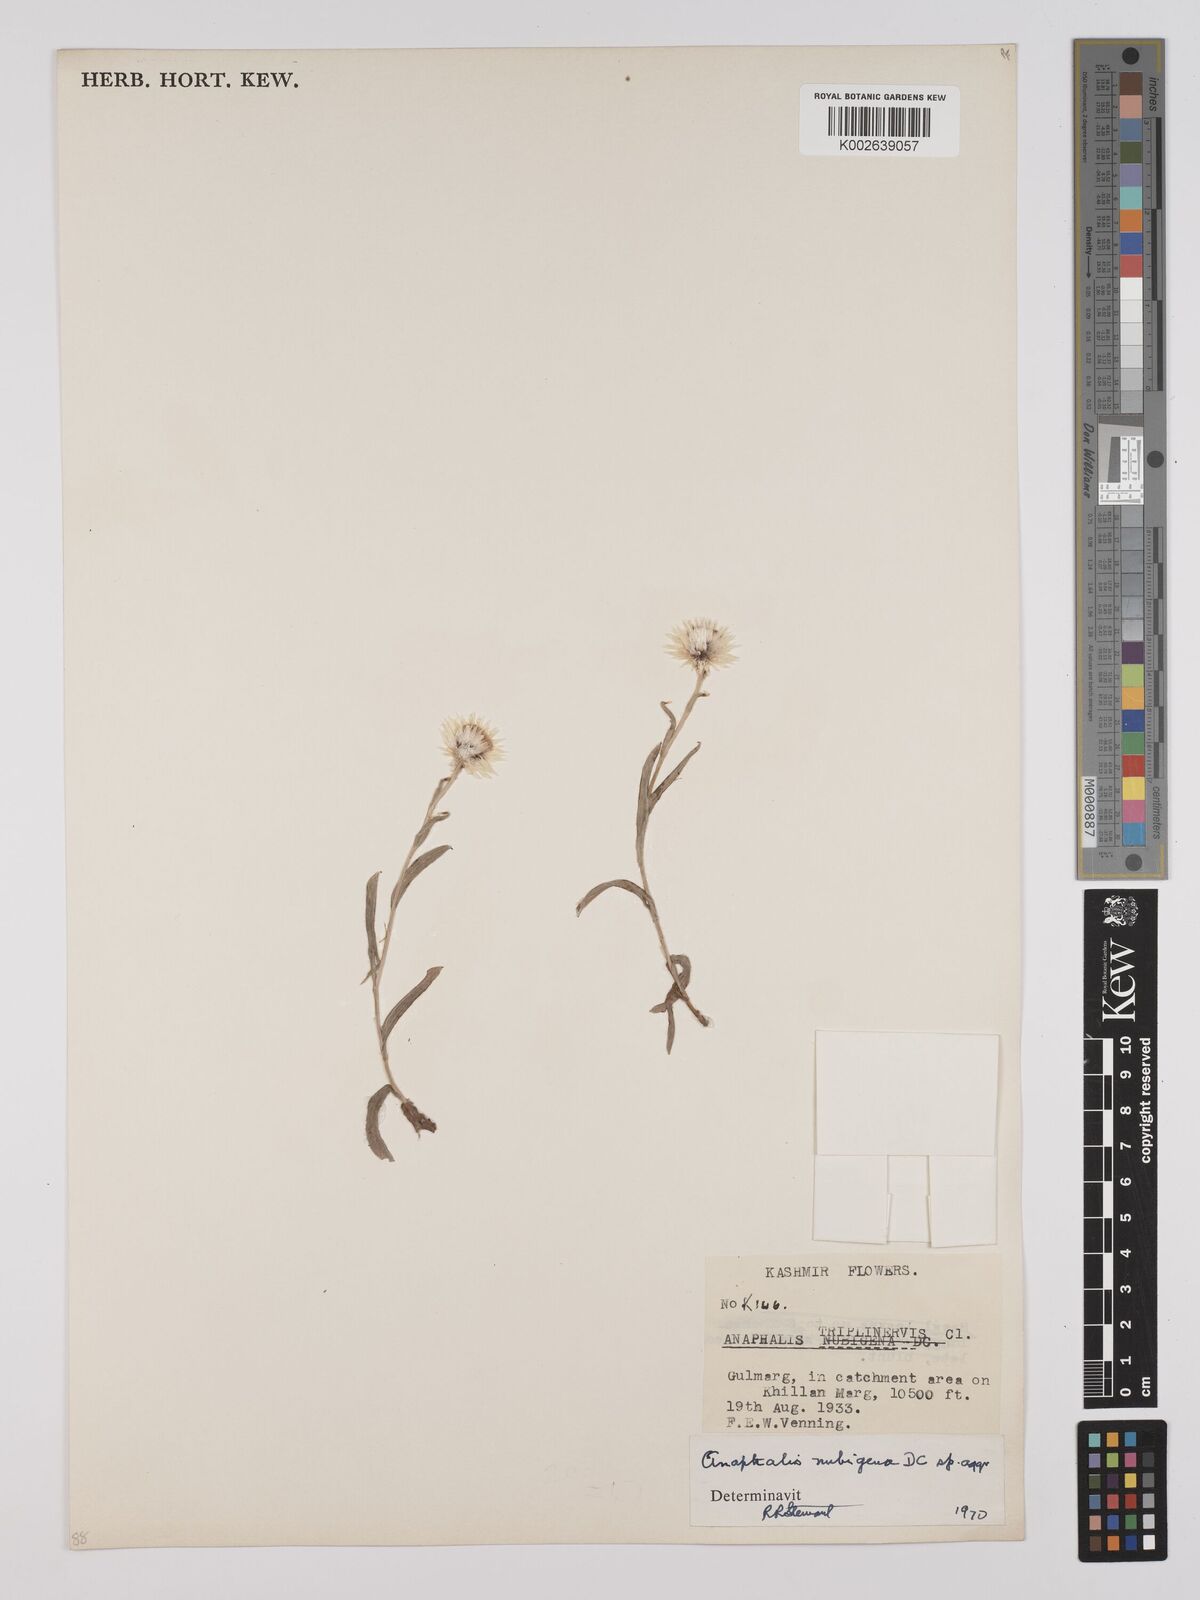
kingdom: Plantae
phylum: Tracheophyta
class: Magnoliopsida
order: Asterales
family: Asteraceae
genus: Anaphalis
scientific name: Anaphalis nepalensis
